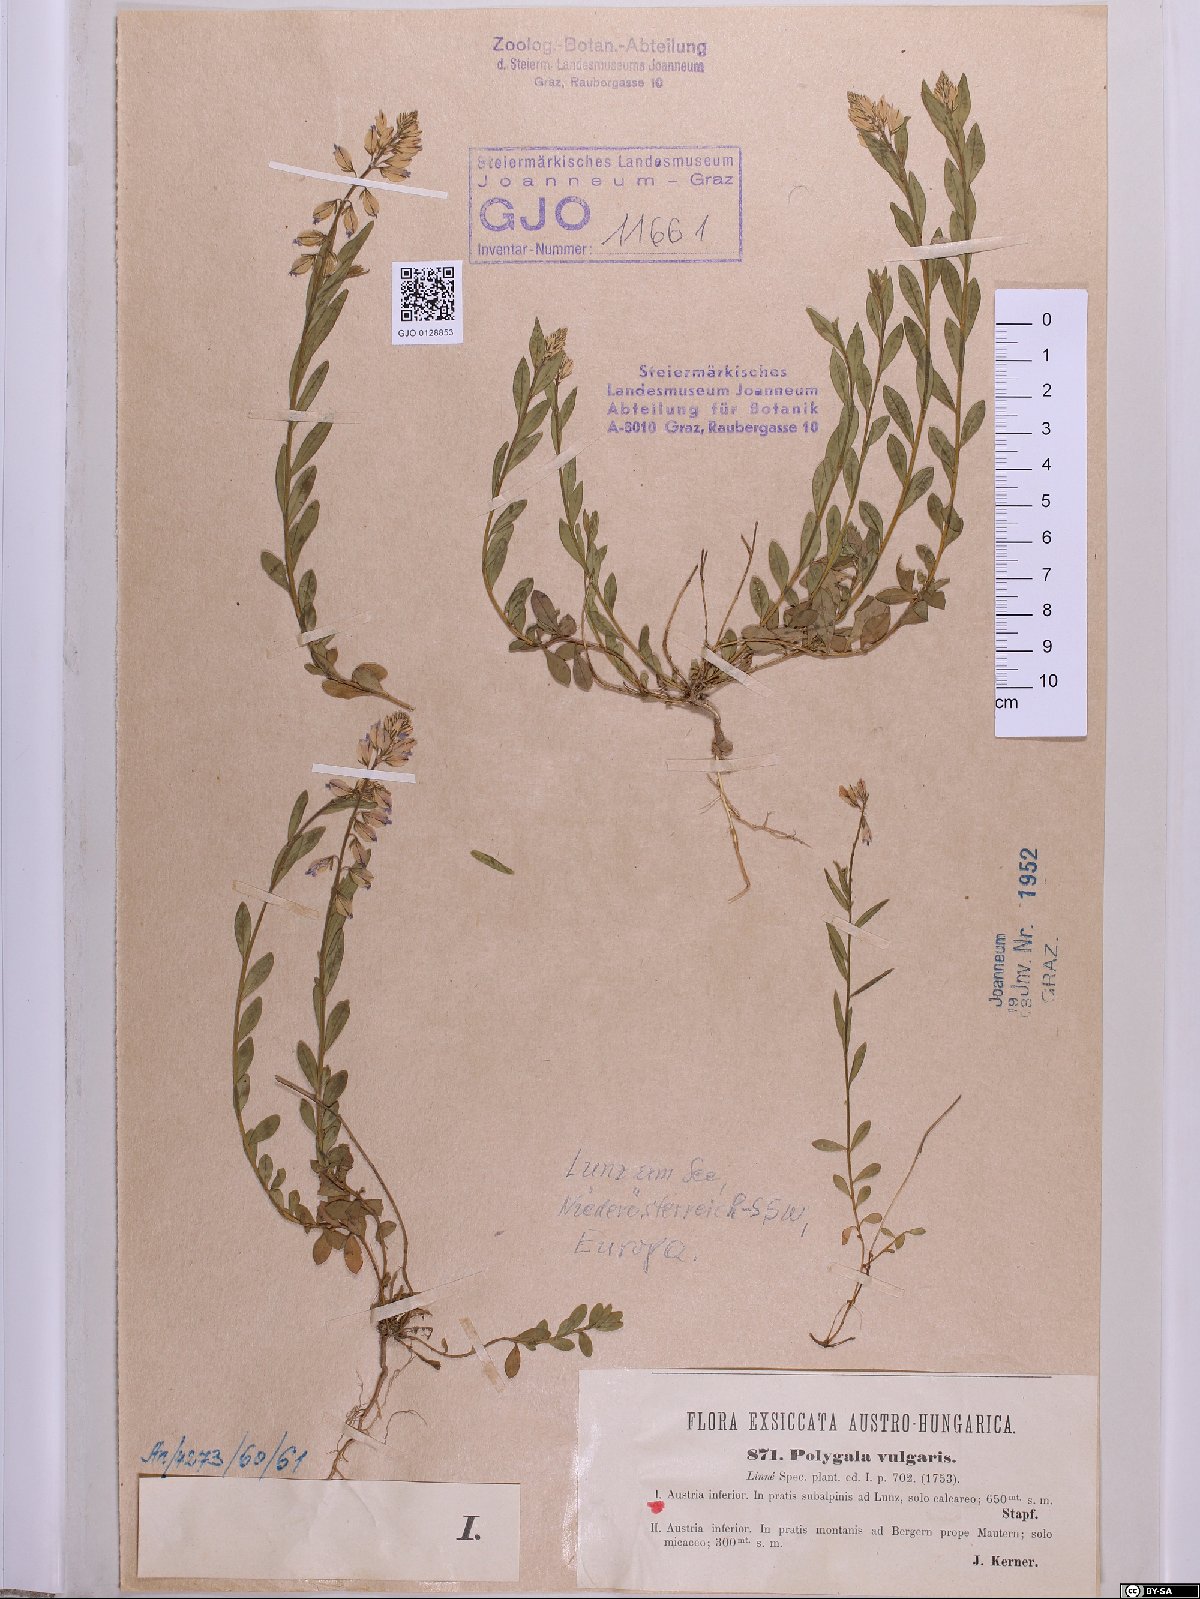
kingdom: Plantae
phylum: Tracheophyta
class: Magnoliopsida
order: Fabales
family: Polygalaceae
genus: Polygala
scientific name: Polygala vulgaris
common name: Common milkwort
